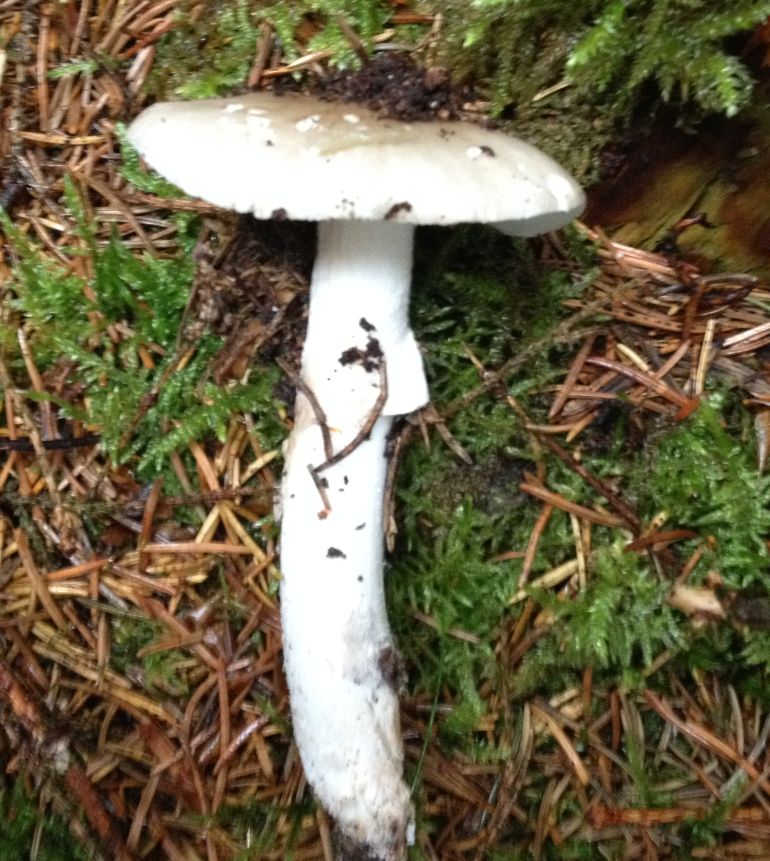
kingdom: Fungi
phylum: Basidiomycota
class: Agaricomycetes
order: Agaricales
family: Amanitaceae
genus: Amanita
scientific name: Amanita
